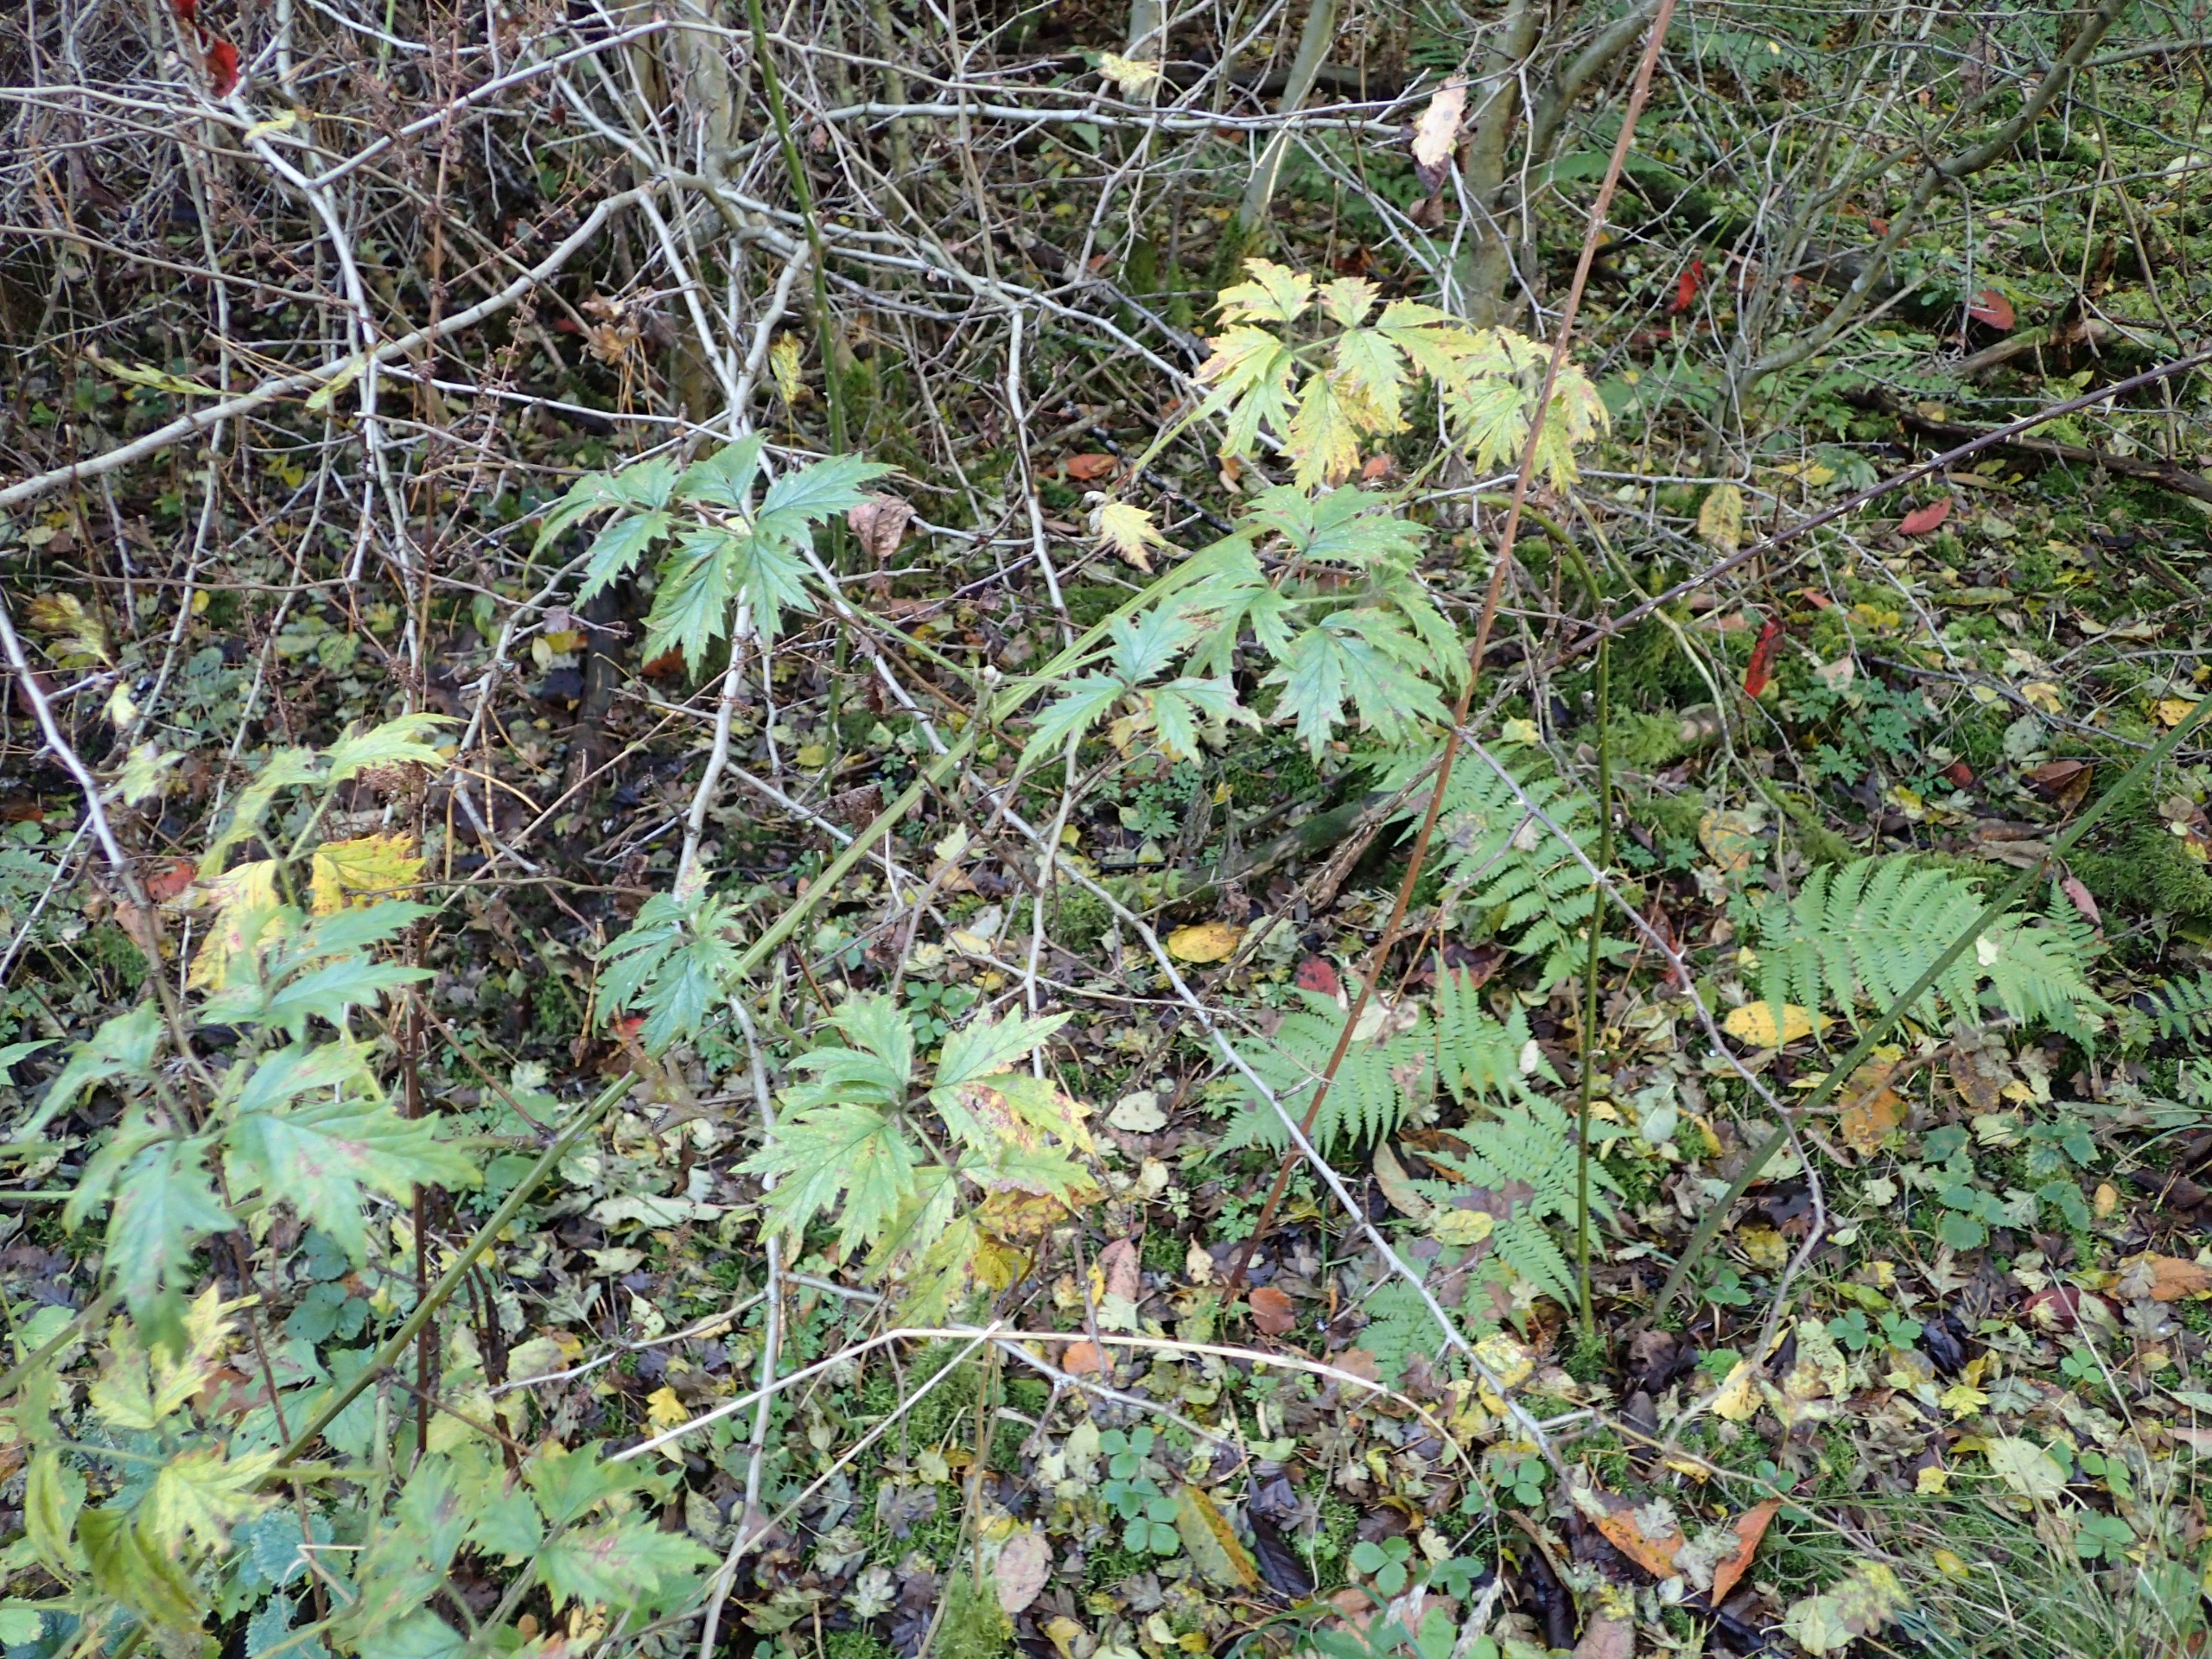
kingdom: Plantae
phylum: Tracheophyta
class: Magnoliopsida
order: Rosales
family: Rosaceae
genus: Rubus
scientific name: Rubus laciniatus
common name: Fliget brombær
